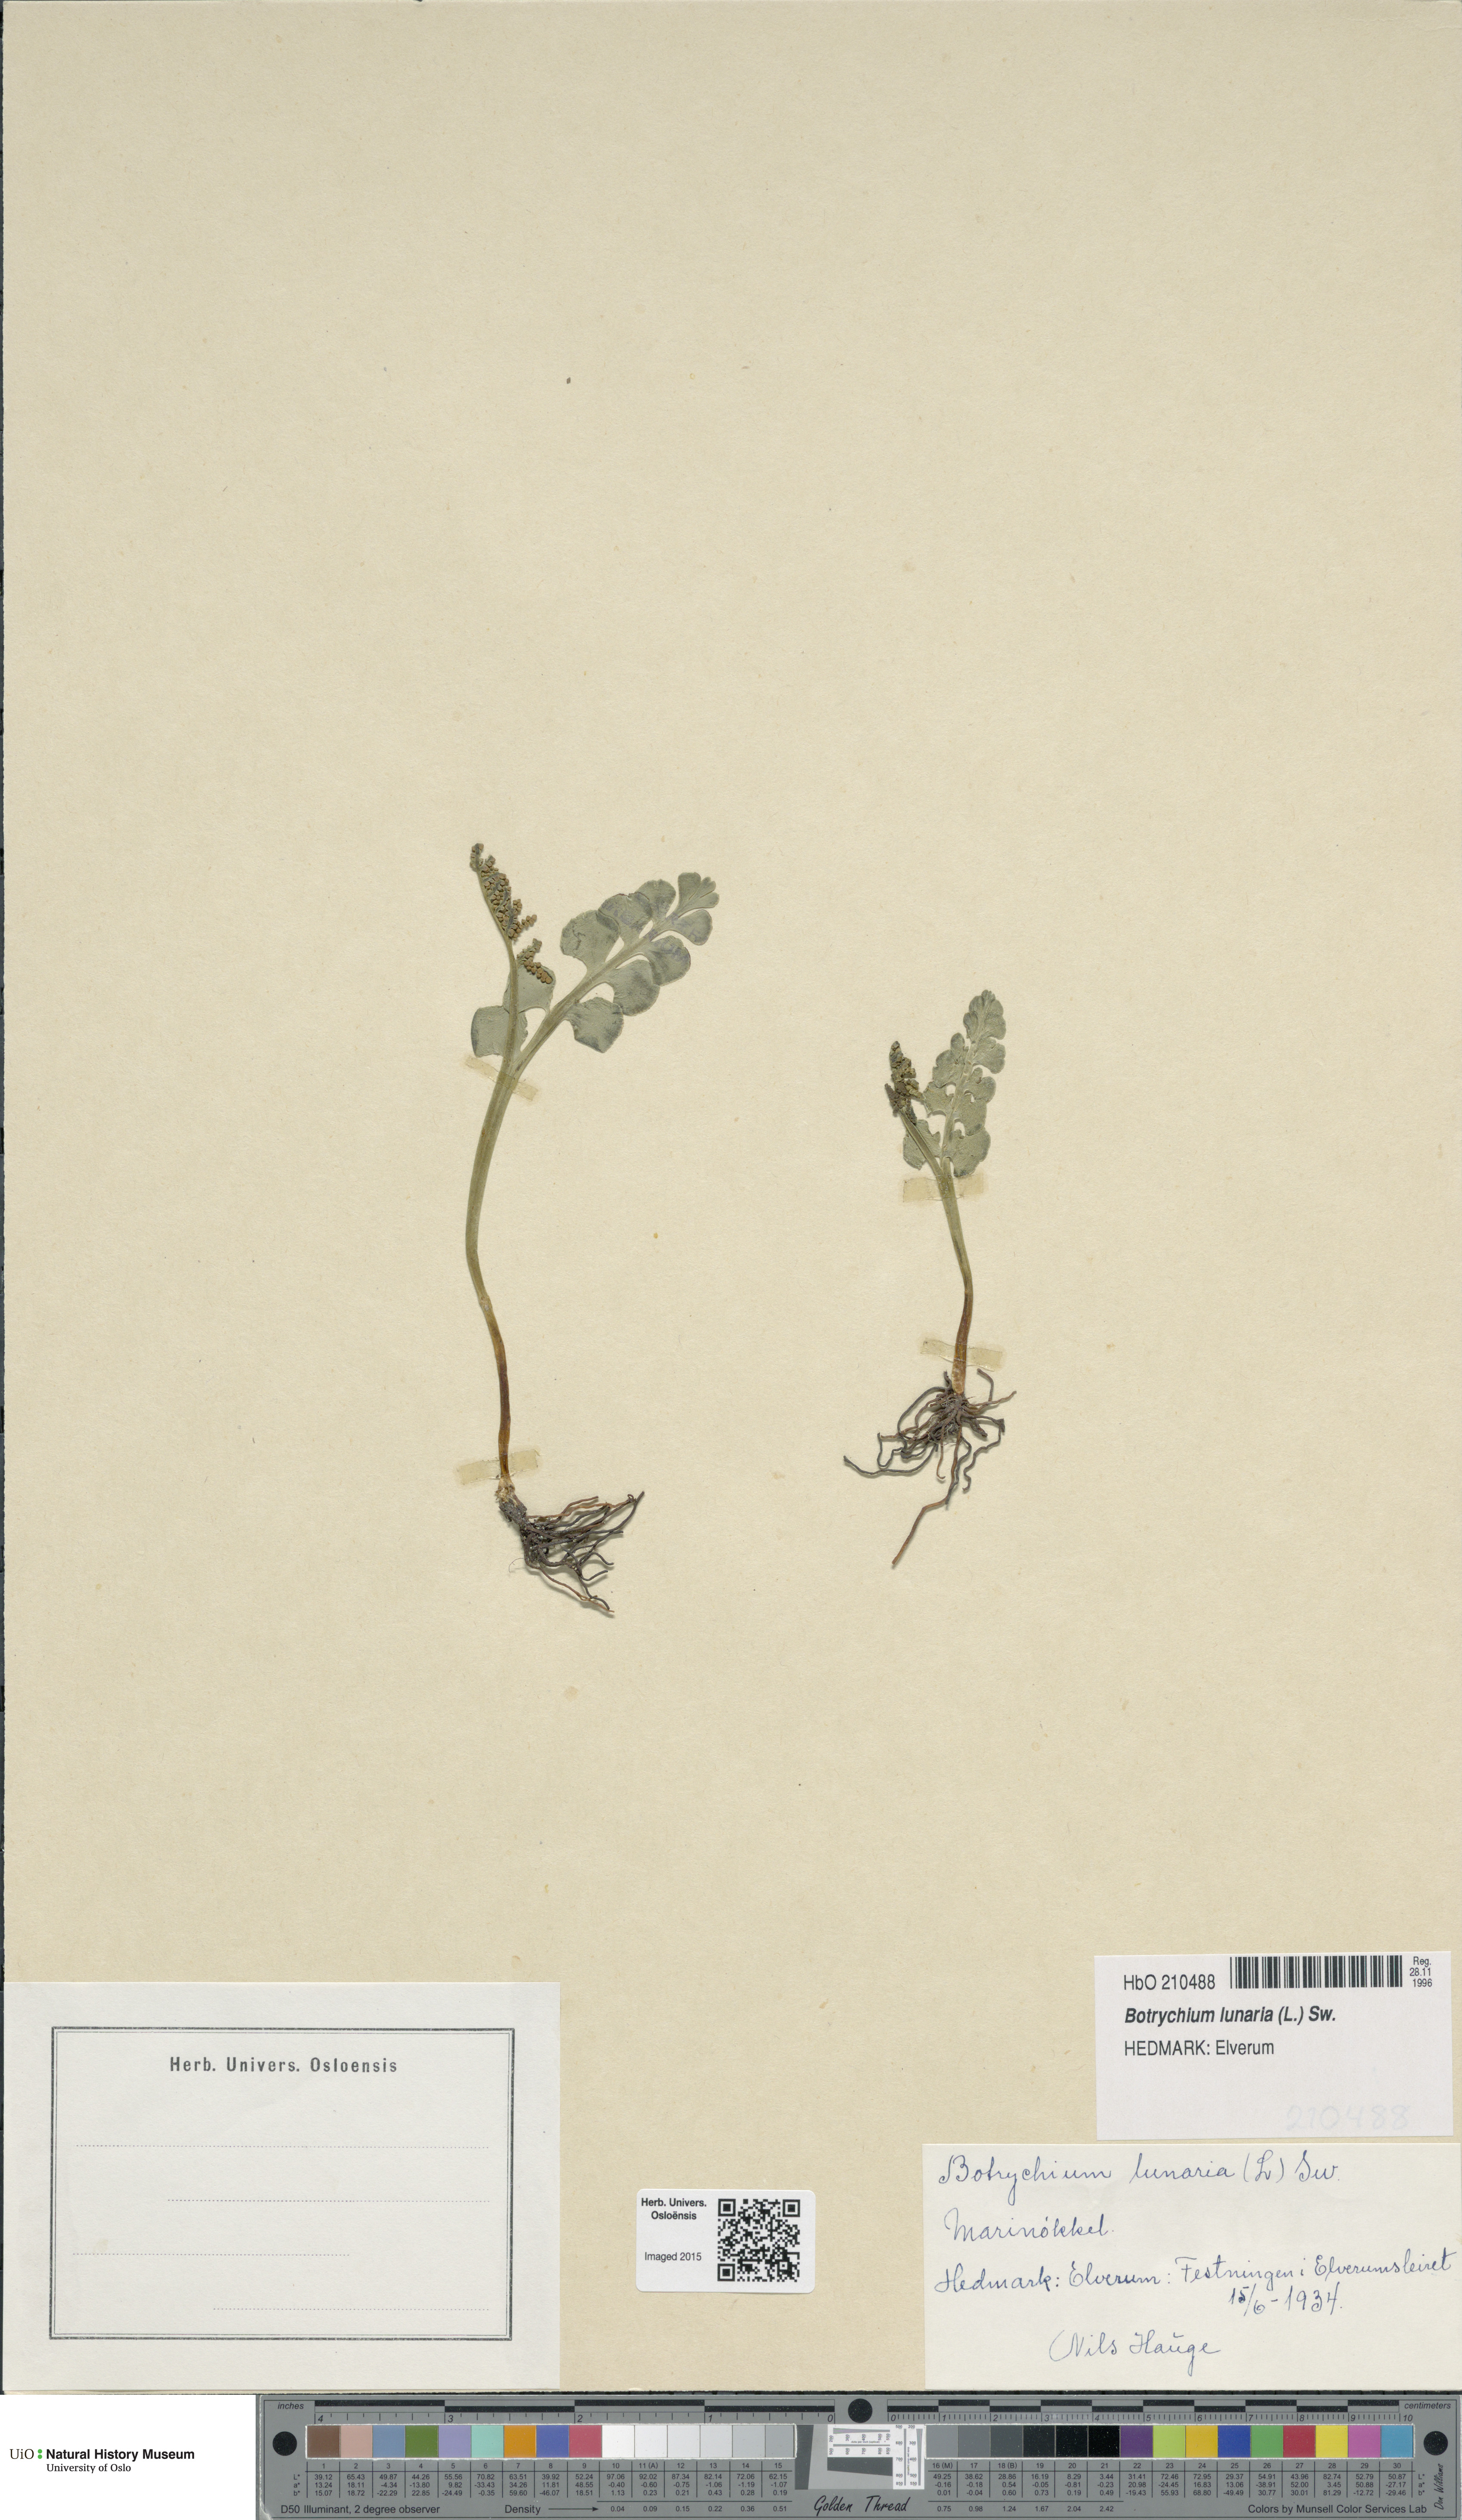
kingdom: Plantae
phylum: Tracheophyta
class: Polypodiopsida
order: Ophioglossales
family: Ophioglossaceae
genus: Botrychium
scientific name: Botrychium lunaria
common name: Moonwort
